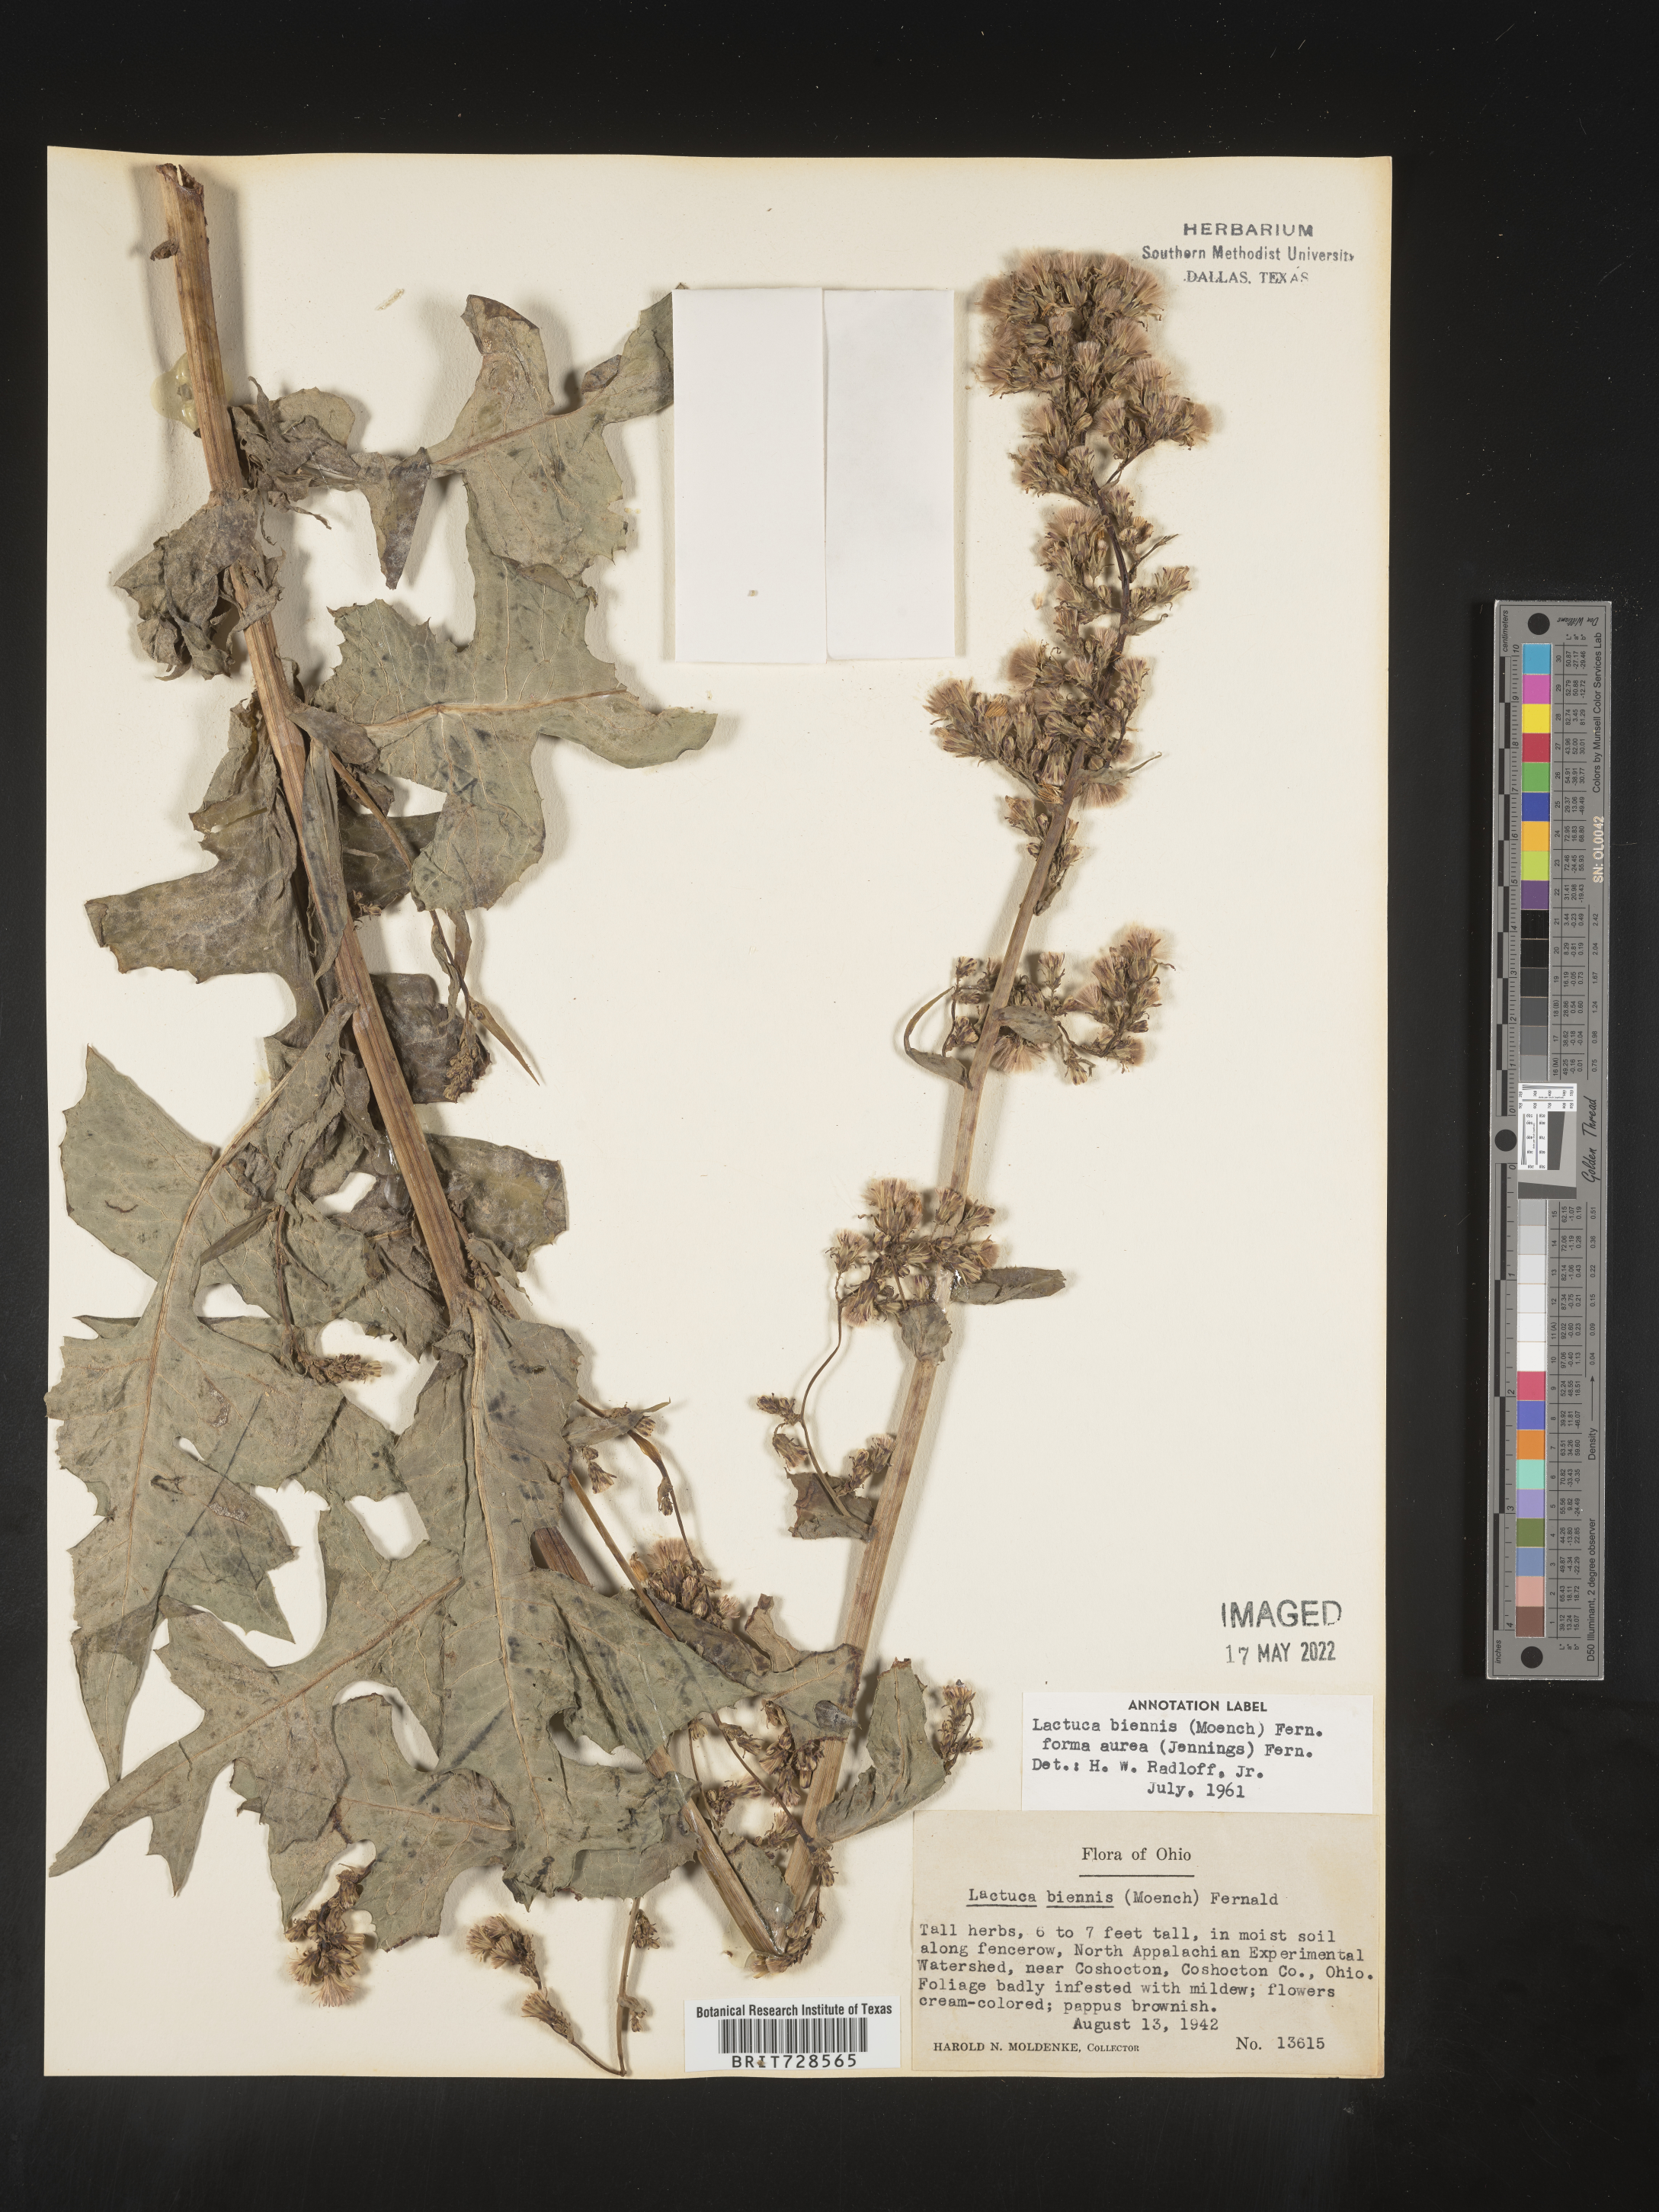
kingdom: Plantae
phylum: Tracheophyta
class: Magnoliopsida
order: Asterales
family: Asteraceae
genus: Lactuca
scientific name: Lactuca biennis
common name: Blue wood lettuce
